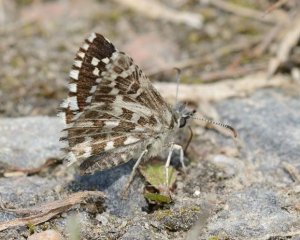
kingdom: Animalia
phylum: Arthropoda
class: Insecta
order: Lepidoptera
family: Hesperiidae
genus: Pyrgus
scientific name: Pyrgus centaureae
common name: Grizzled Skipper
